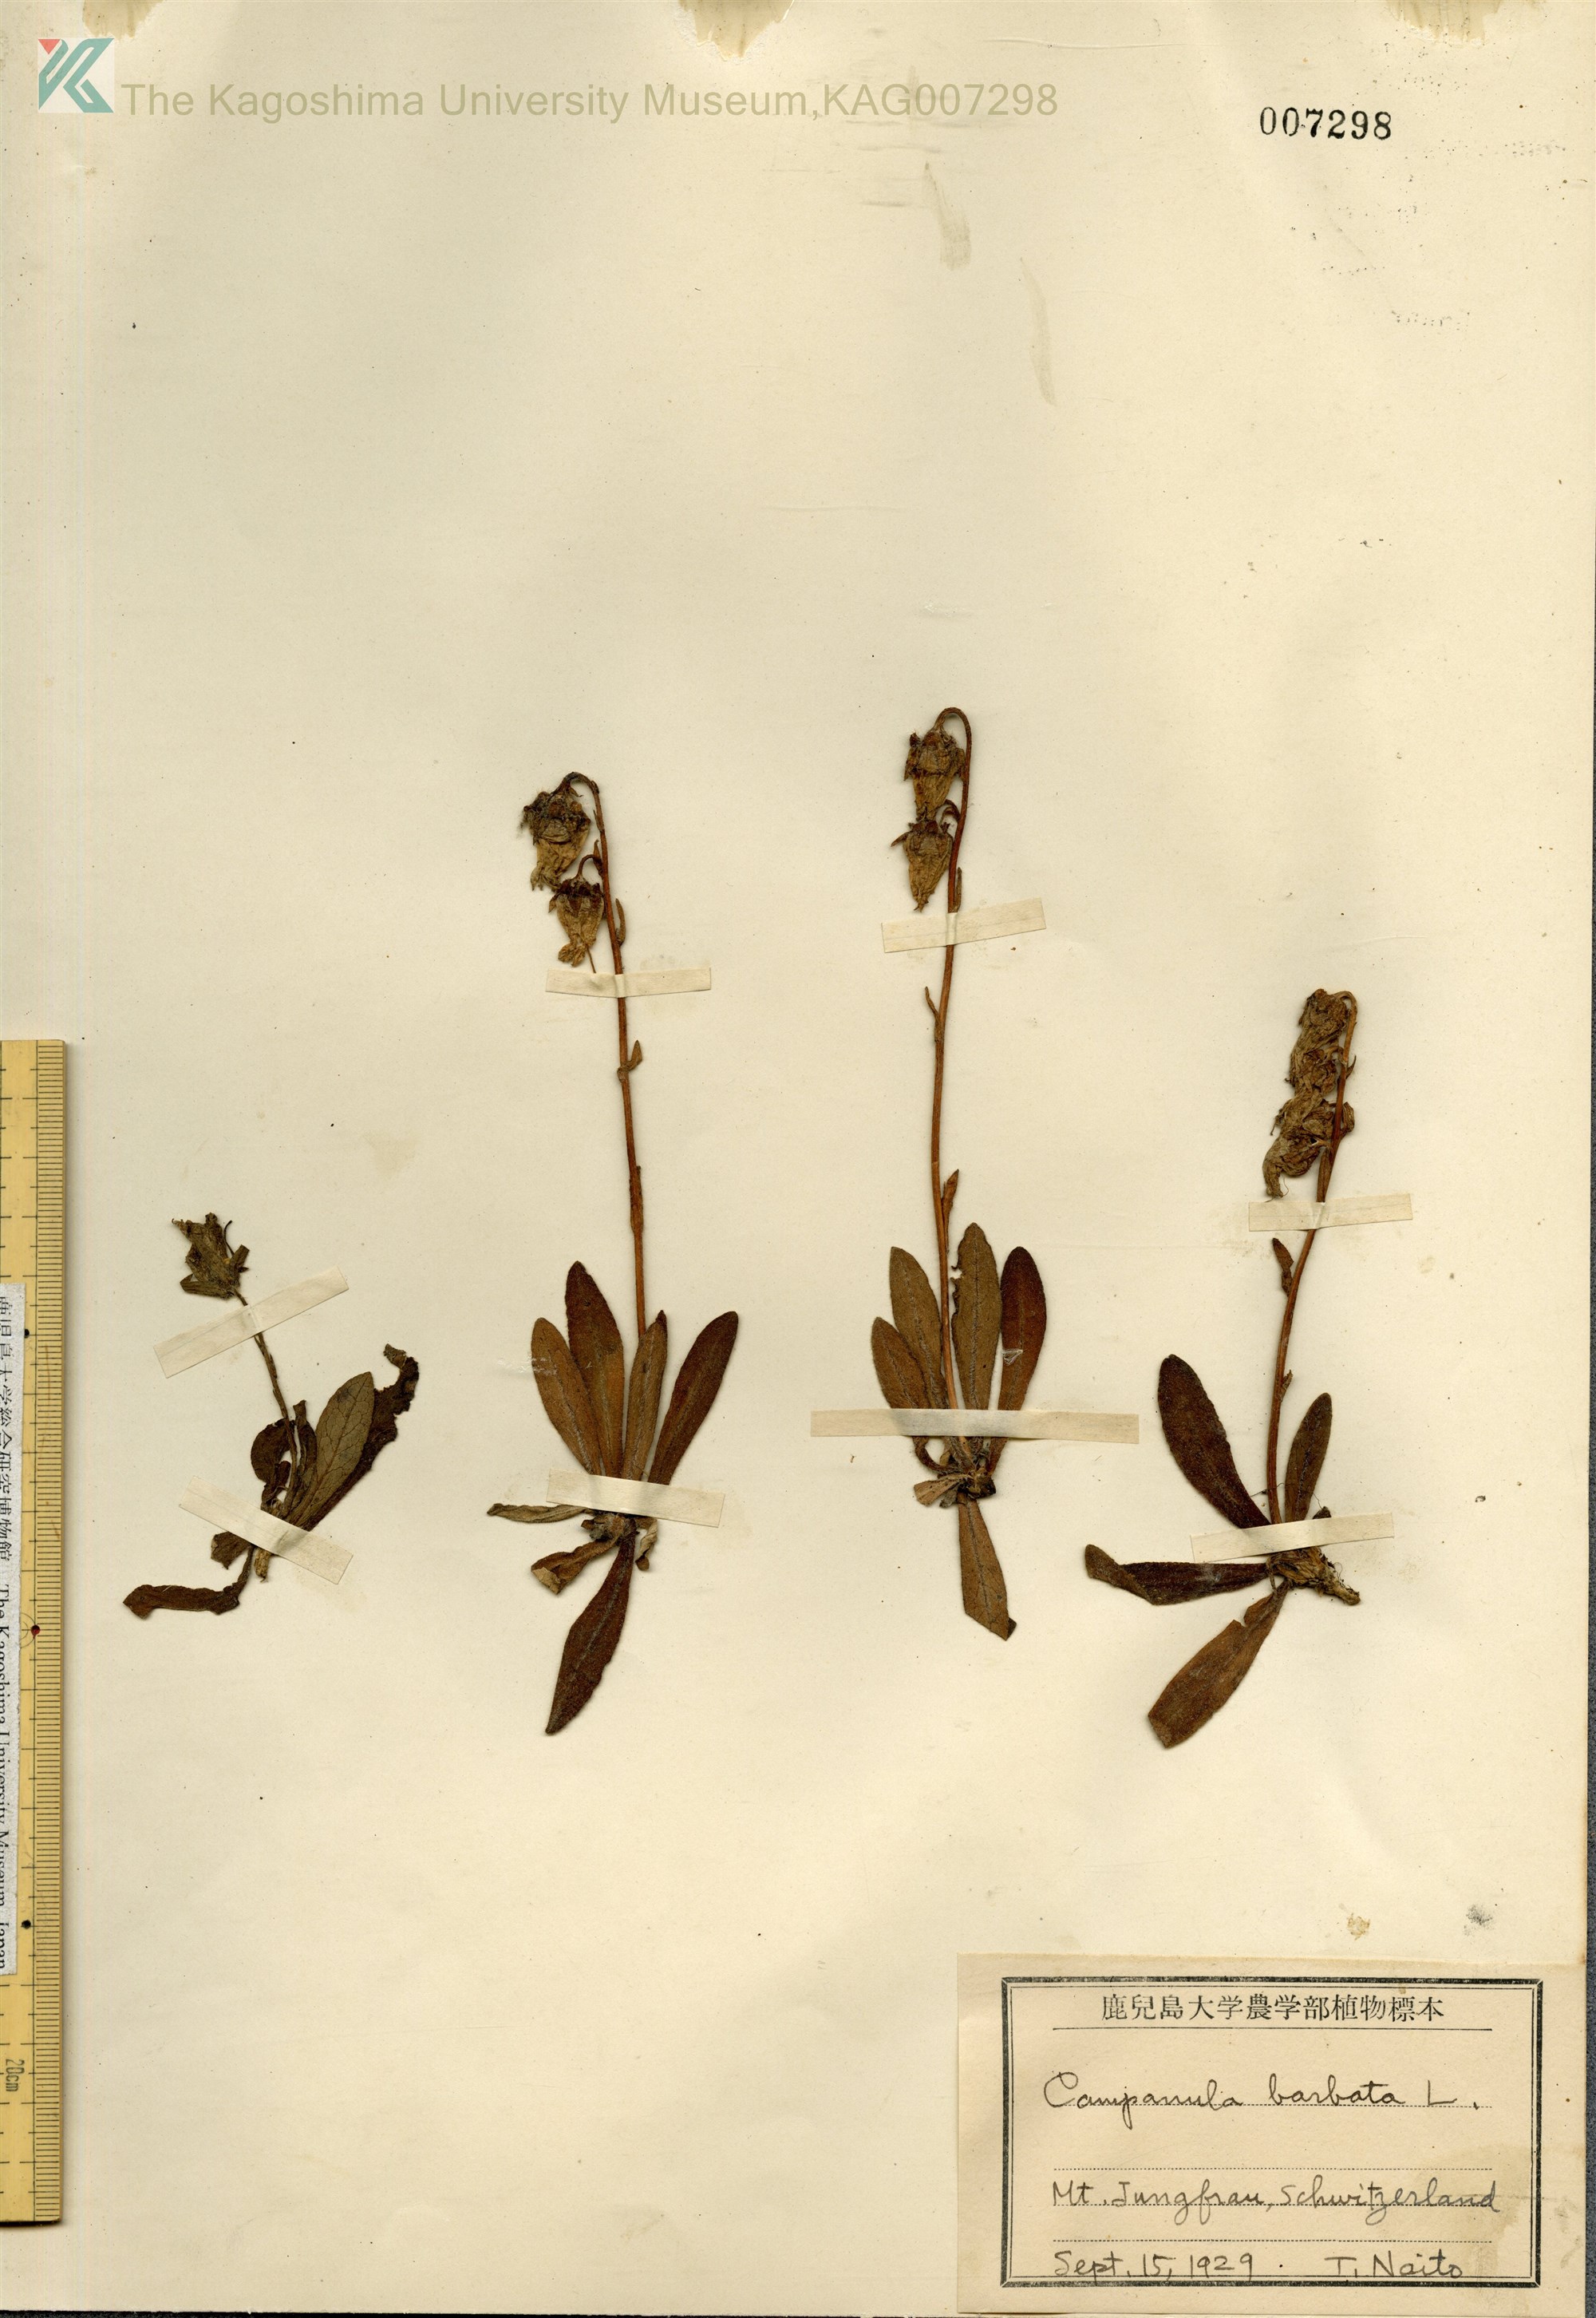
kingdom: Plantae
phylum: Tracheophyta
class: Magnoliopsida
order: Asterales
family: Campanulaceae
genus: Campanula
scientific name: Campanula barbata
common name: Bearded bellflower
